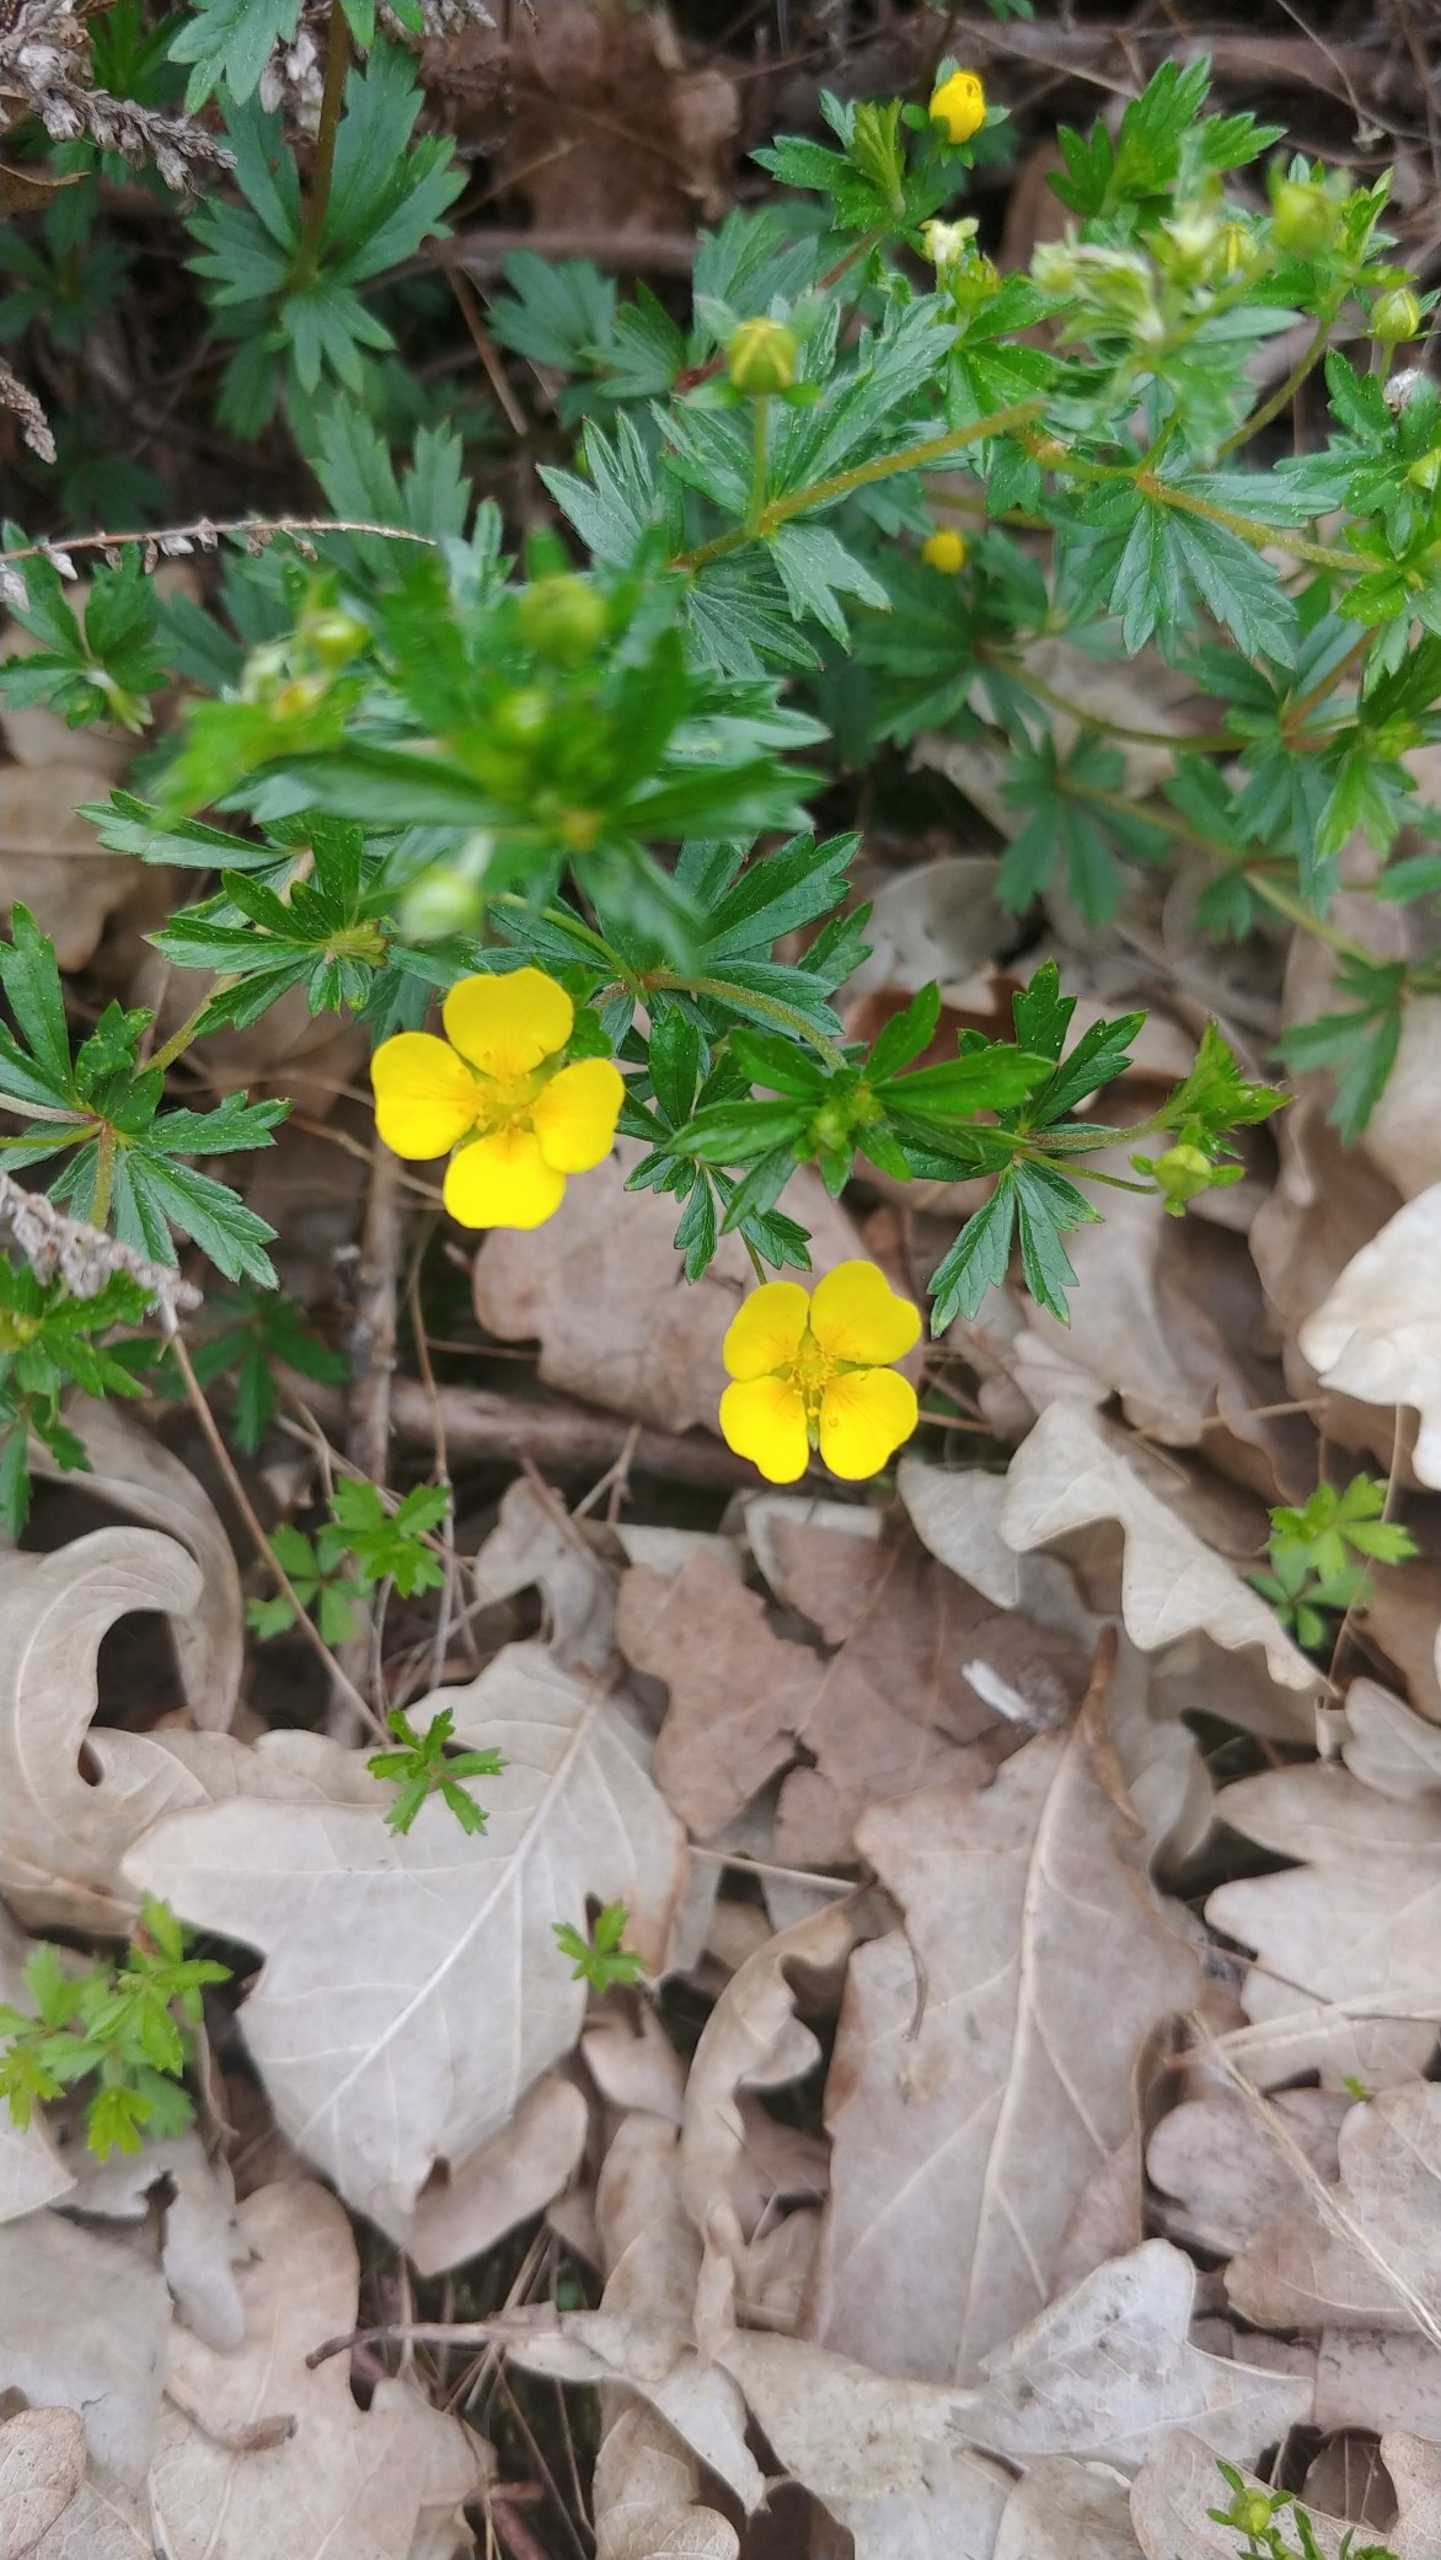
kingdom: Plantae
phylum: Tracheophyta
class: Magnoliopsida
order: Rosales
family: Rosaceae
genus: Potentilla
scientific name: Potentilla erecta
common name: Tormentil
